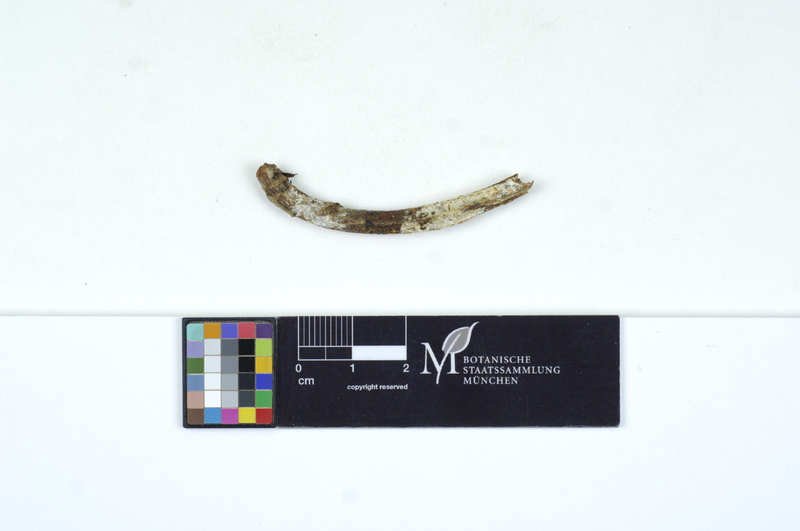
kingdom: Fungi
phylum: Basidiomycota
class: Microbotryomycetes
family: Colacogloeaceae
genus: Colacogloea
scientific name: Colacogloea peniophorae
